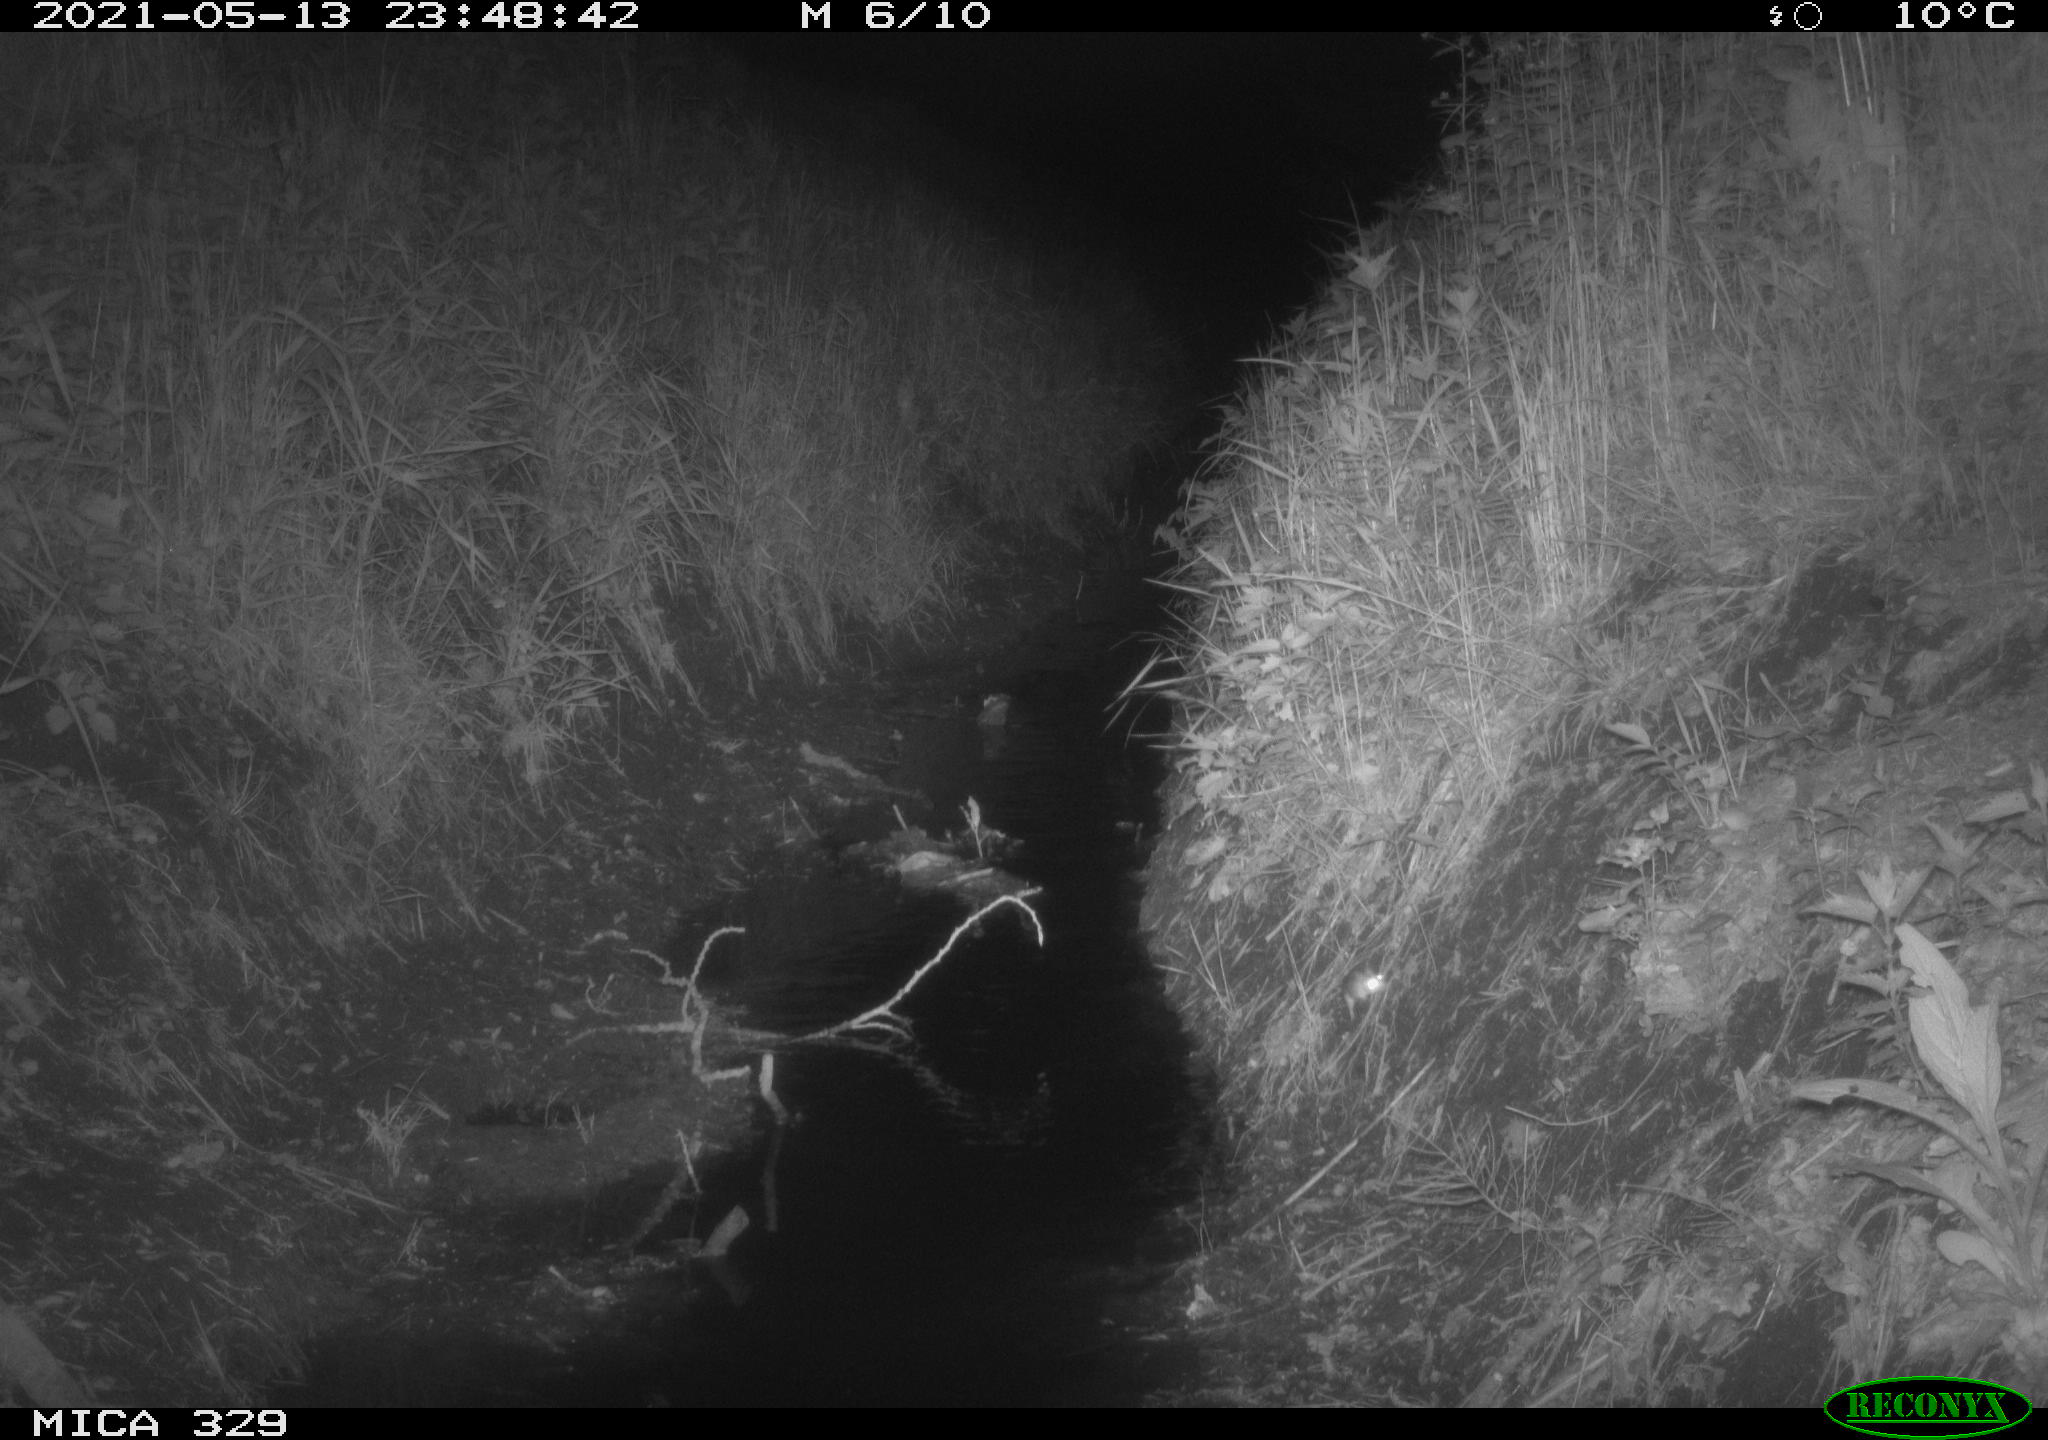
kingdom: Animalia
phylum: Chordata
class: Mammalia
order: Rodentia
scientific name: Rodentia
